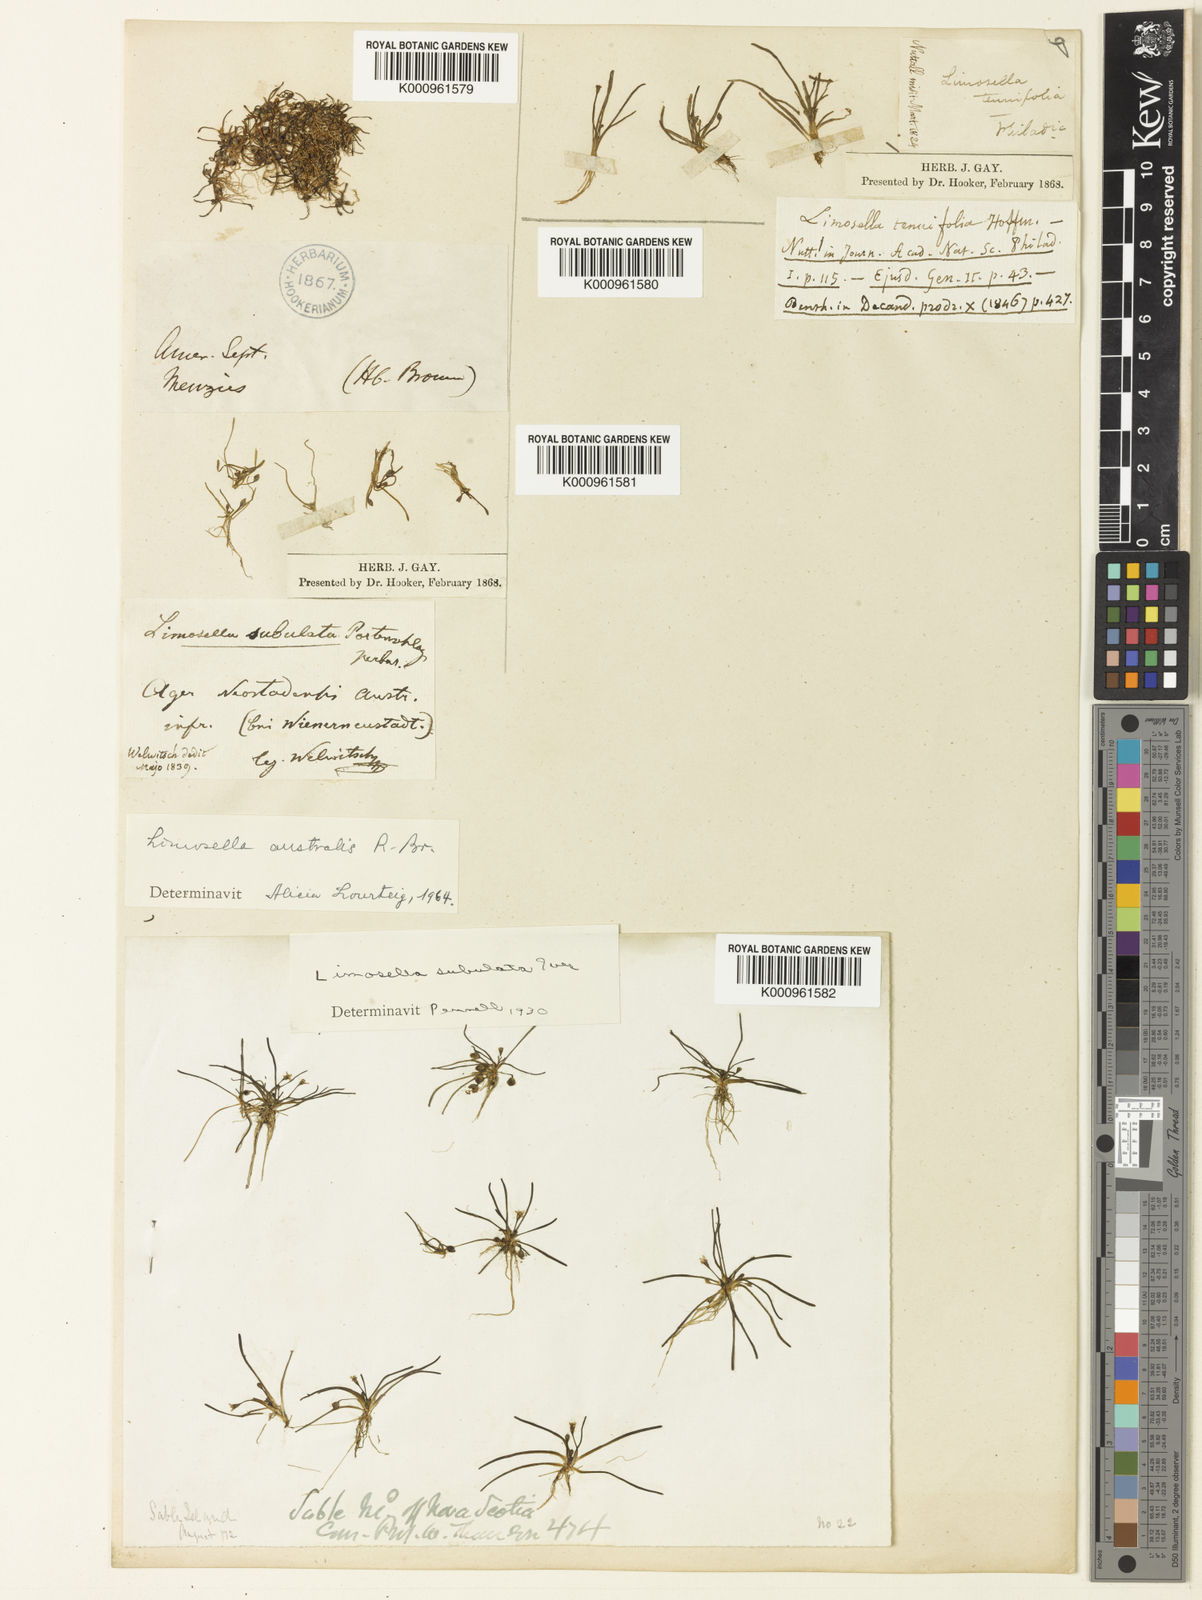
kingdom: Plantae
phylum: Tracheophyta
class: Magnoliopsida
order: Lamiales
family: Scrophulariaceae
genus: Limosella
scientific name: Limosella australis
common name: Welsh mudwort
